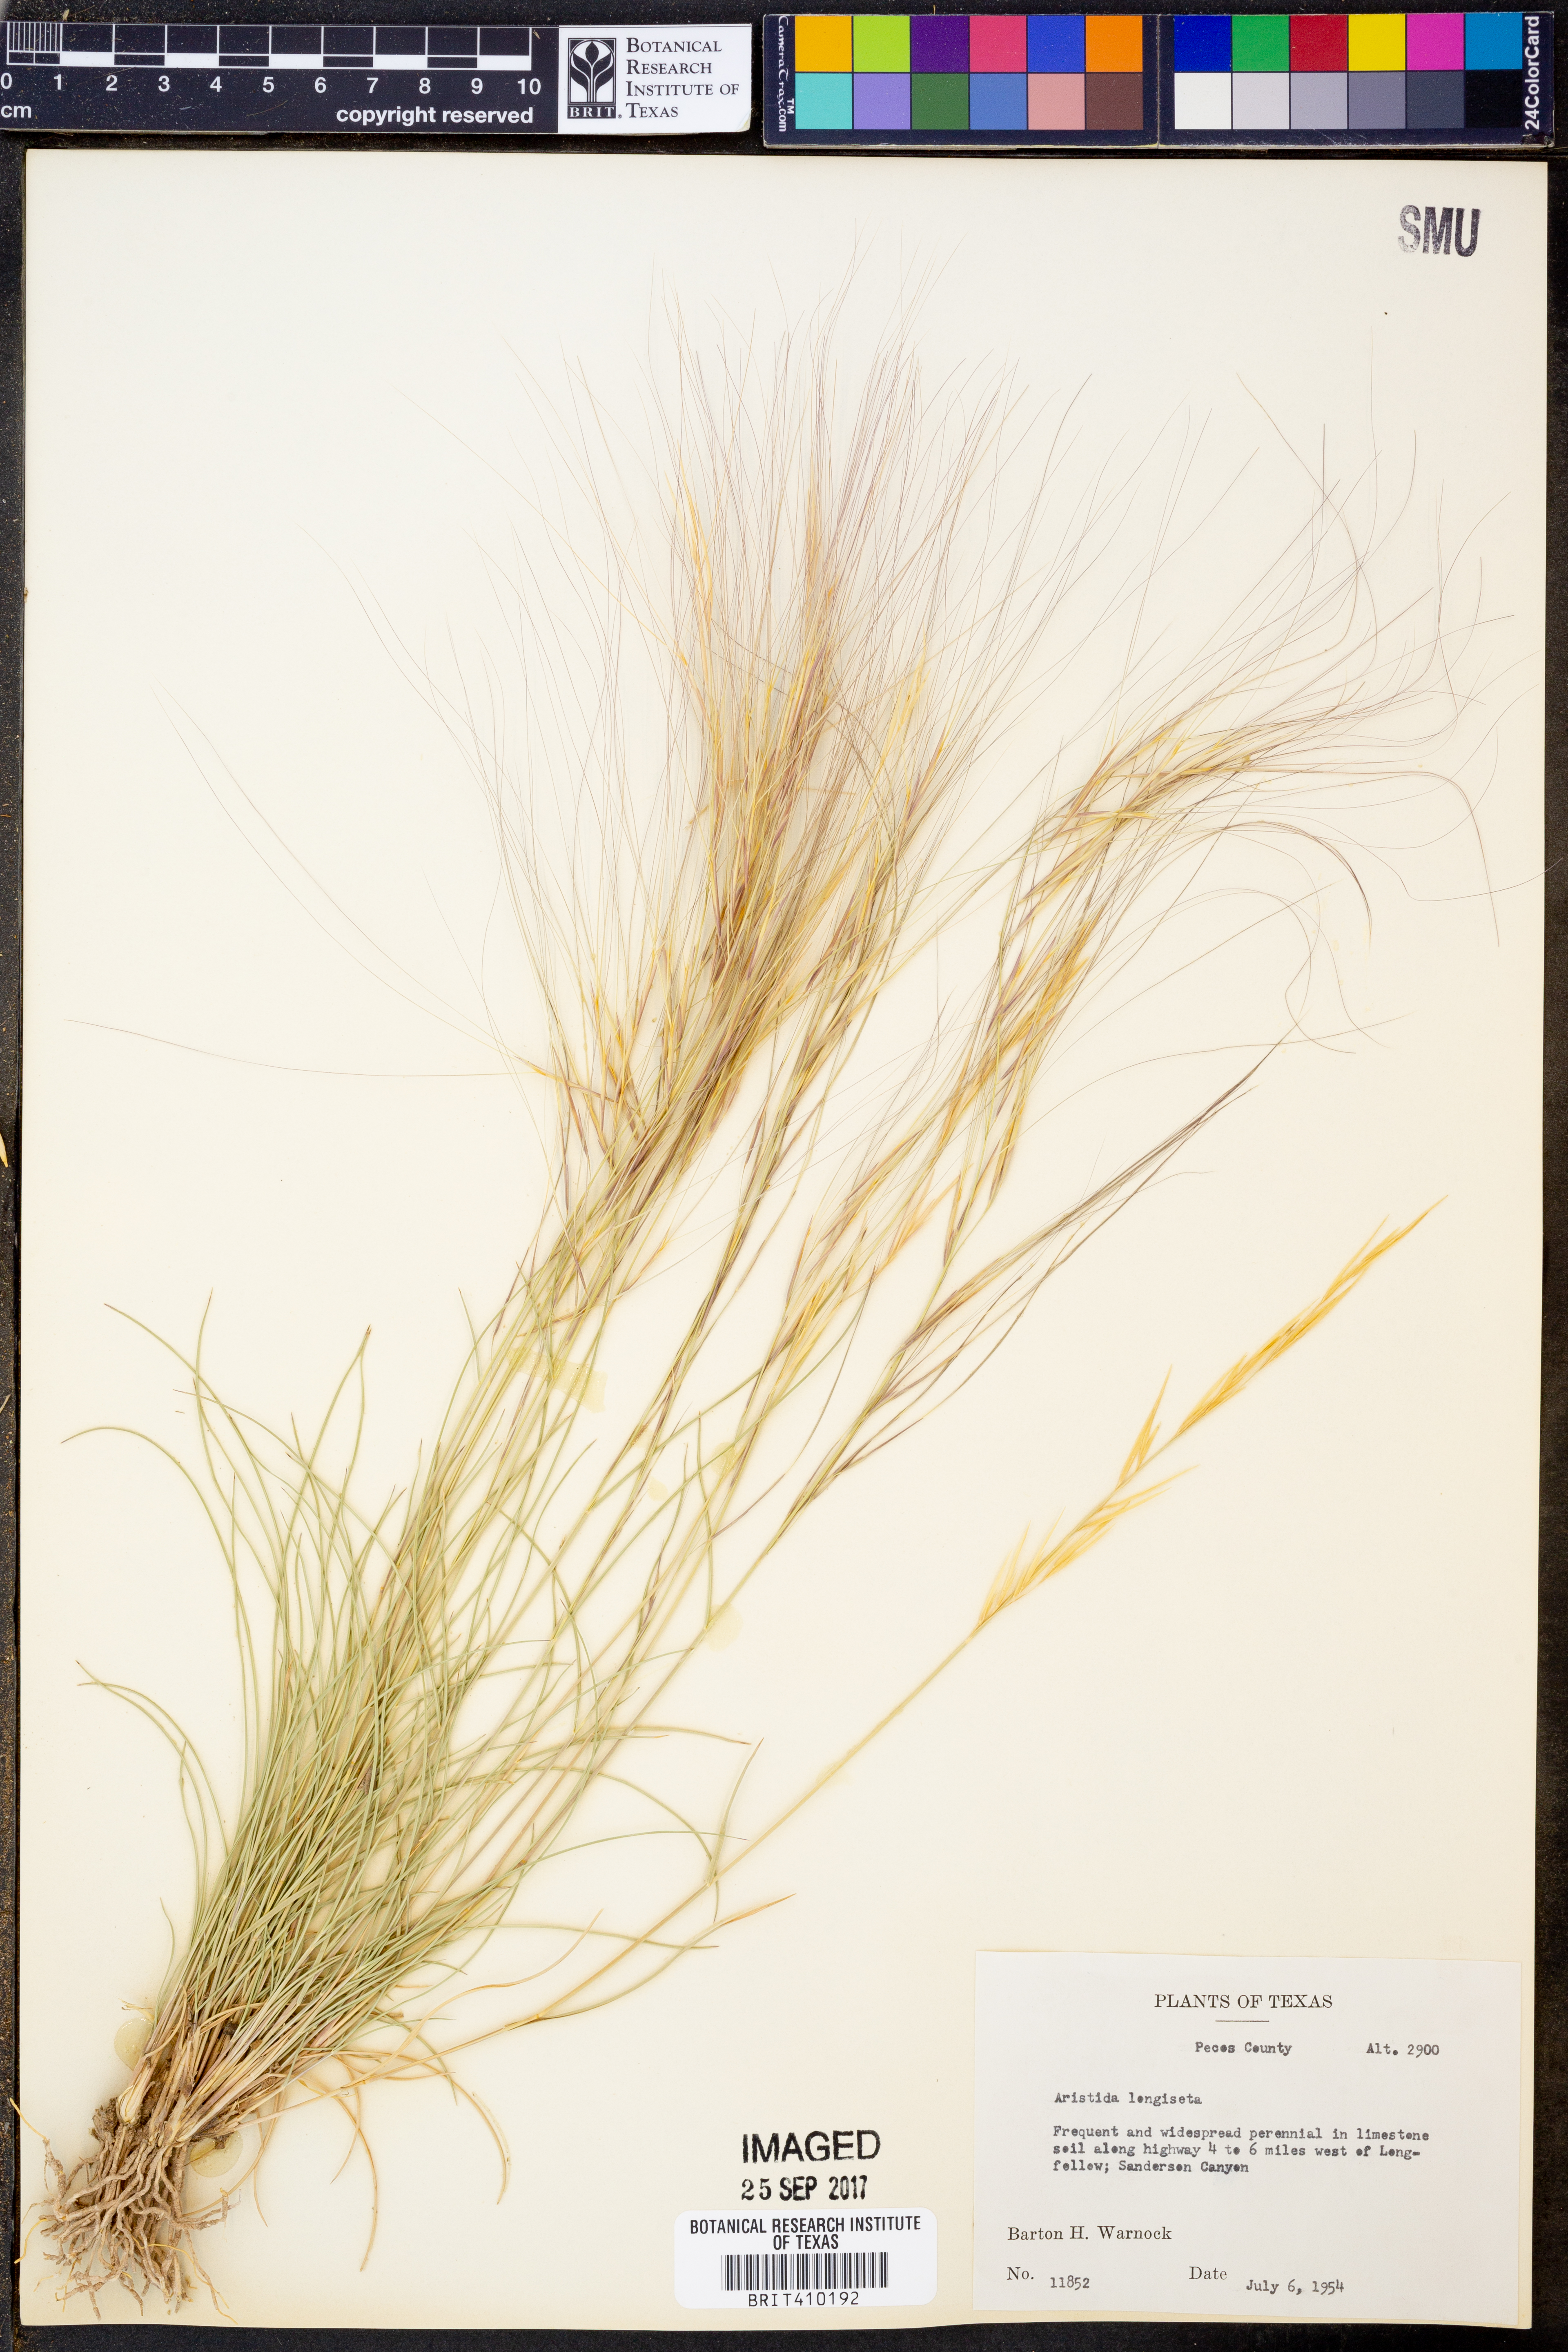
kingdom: Plantae
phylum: Tracheophyta
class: Liliopsida
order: Poales
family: Poaceae
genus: Aristida
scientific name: Aristida longiseta
